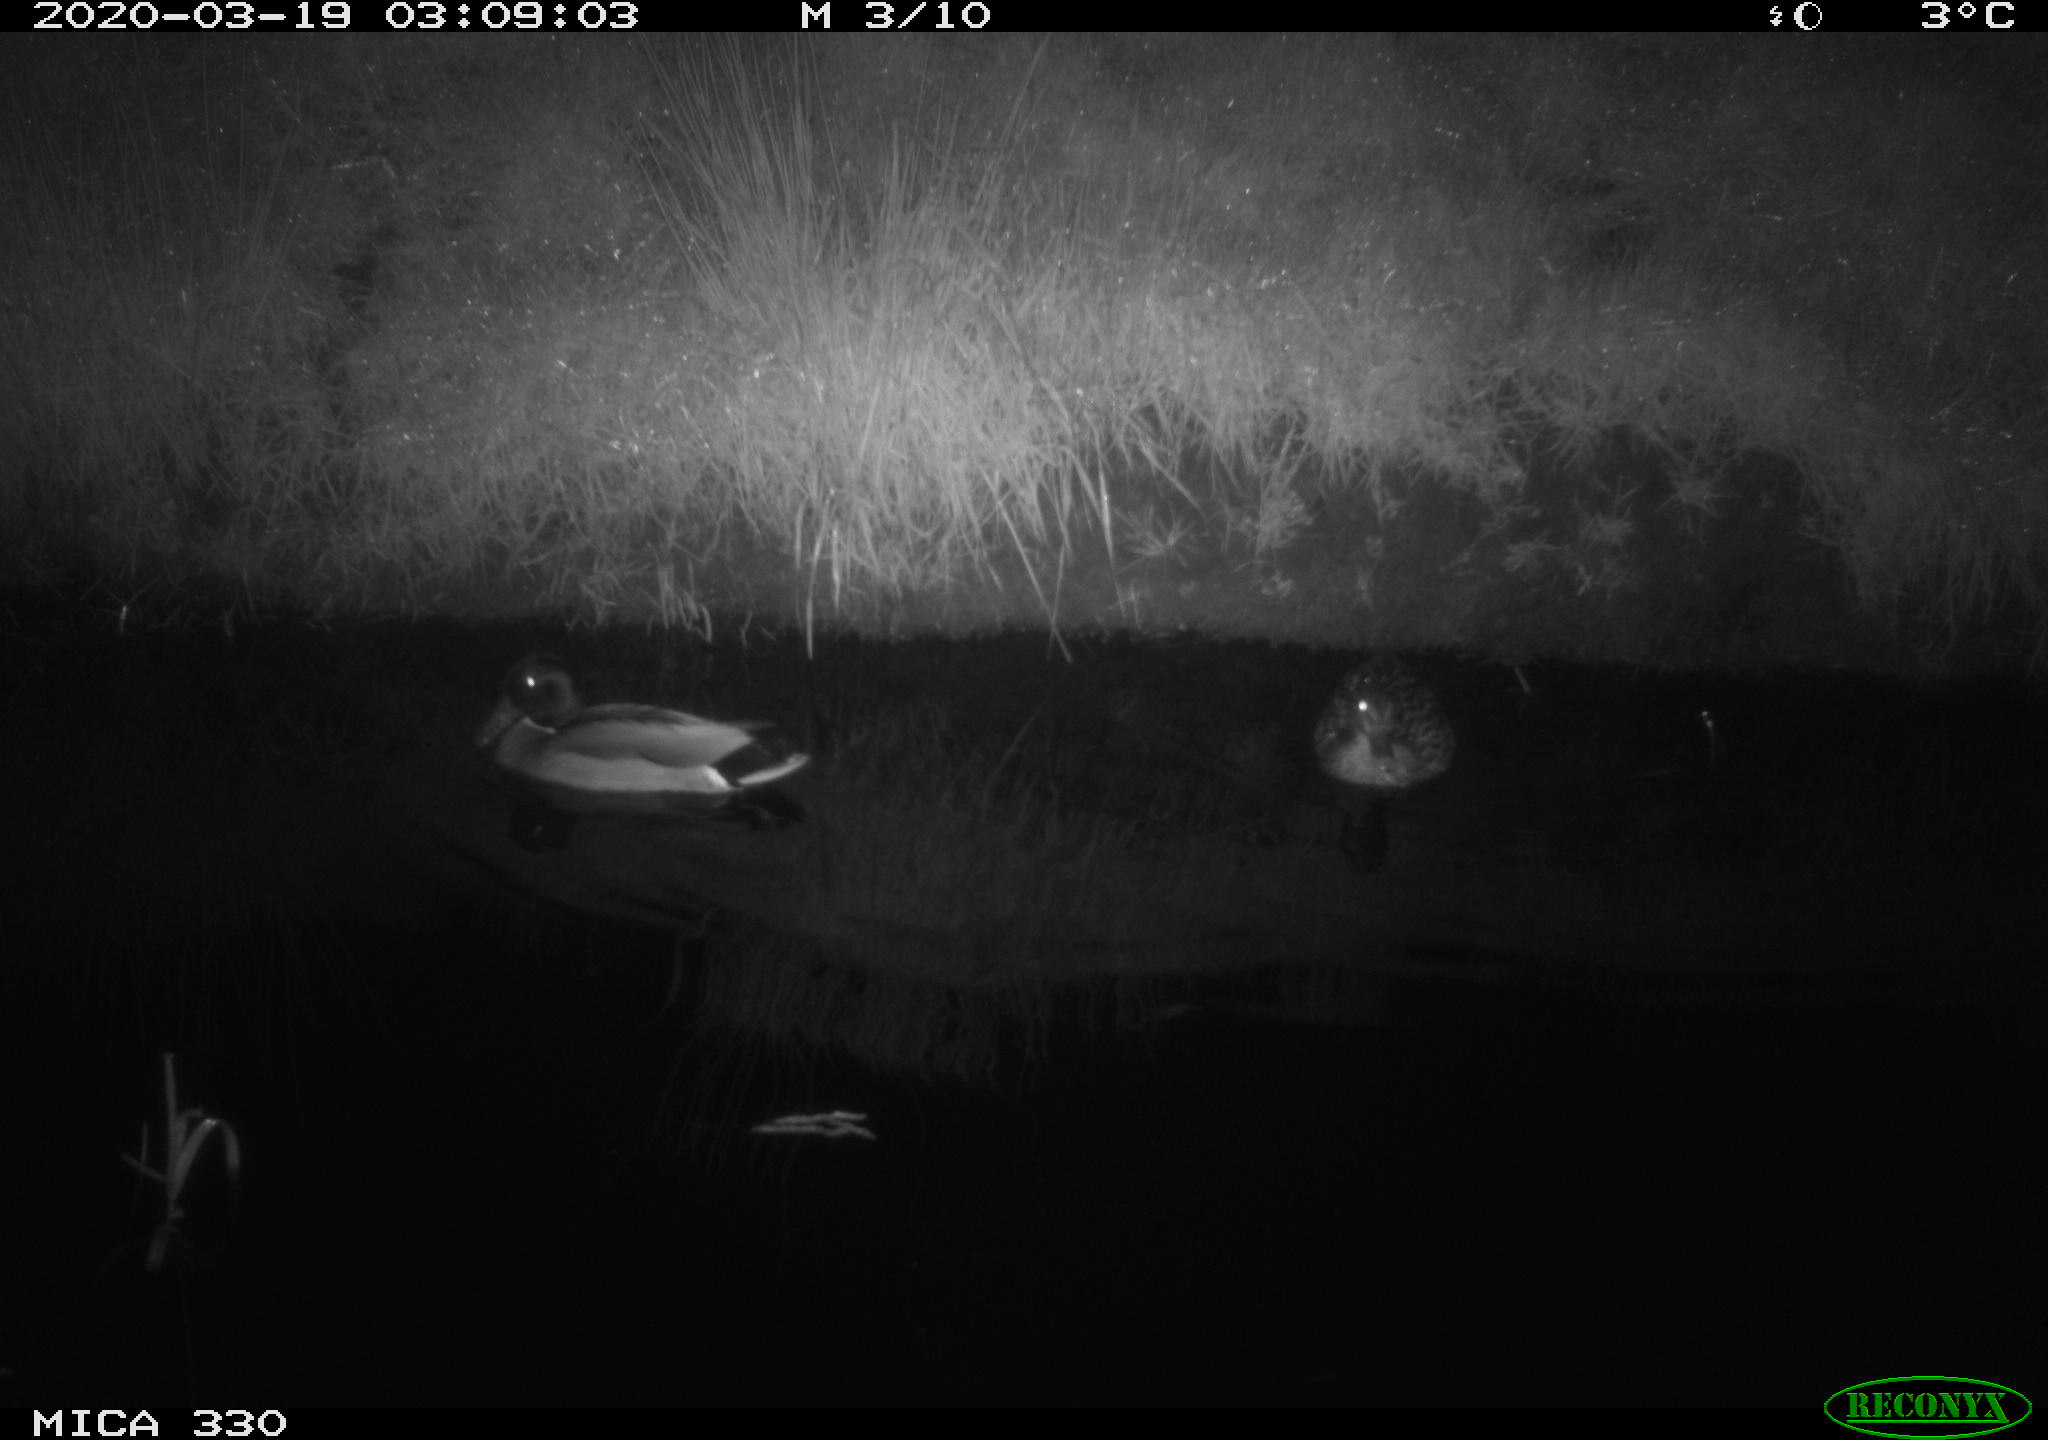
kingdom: Animalia
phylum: Chordata
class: Aves
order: Anseriformes
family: Anatidae
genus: Anas
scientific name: Anas platyrhynchos
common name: Mallard
